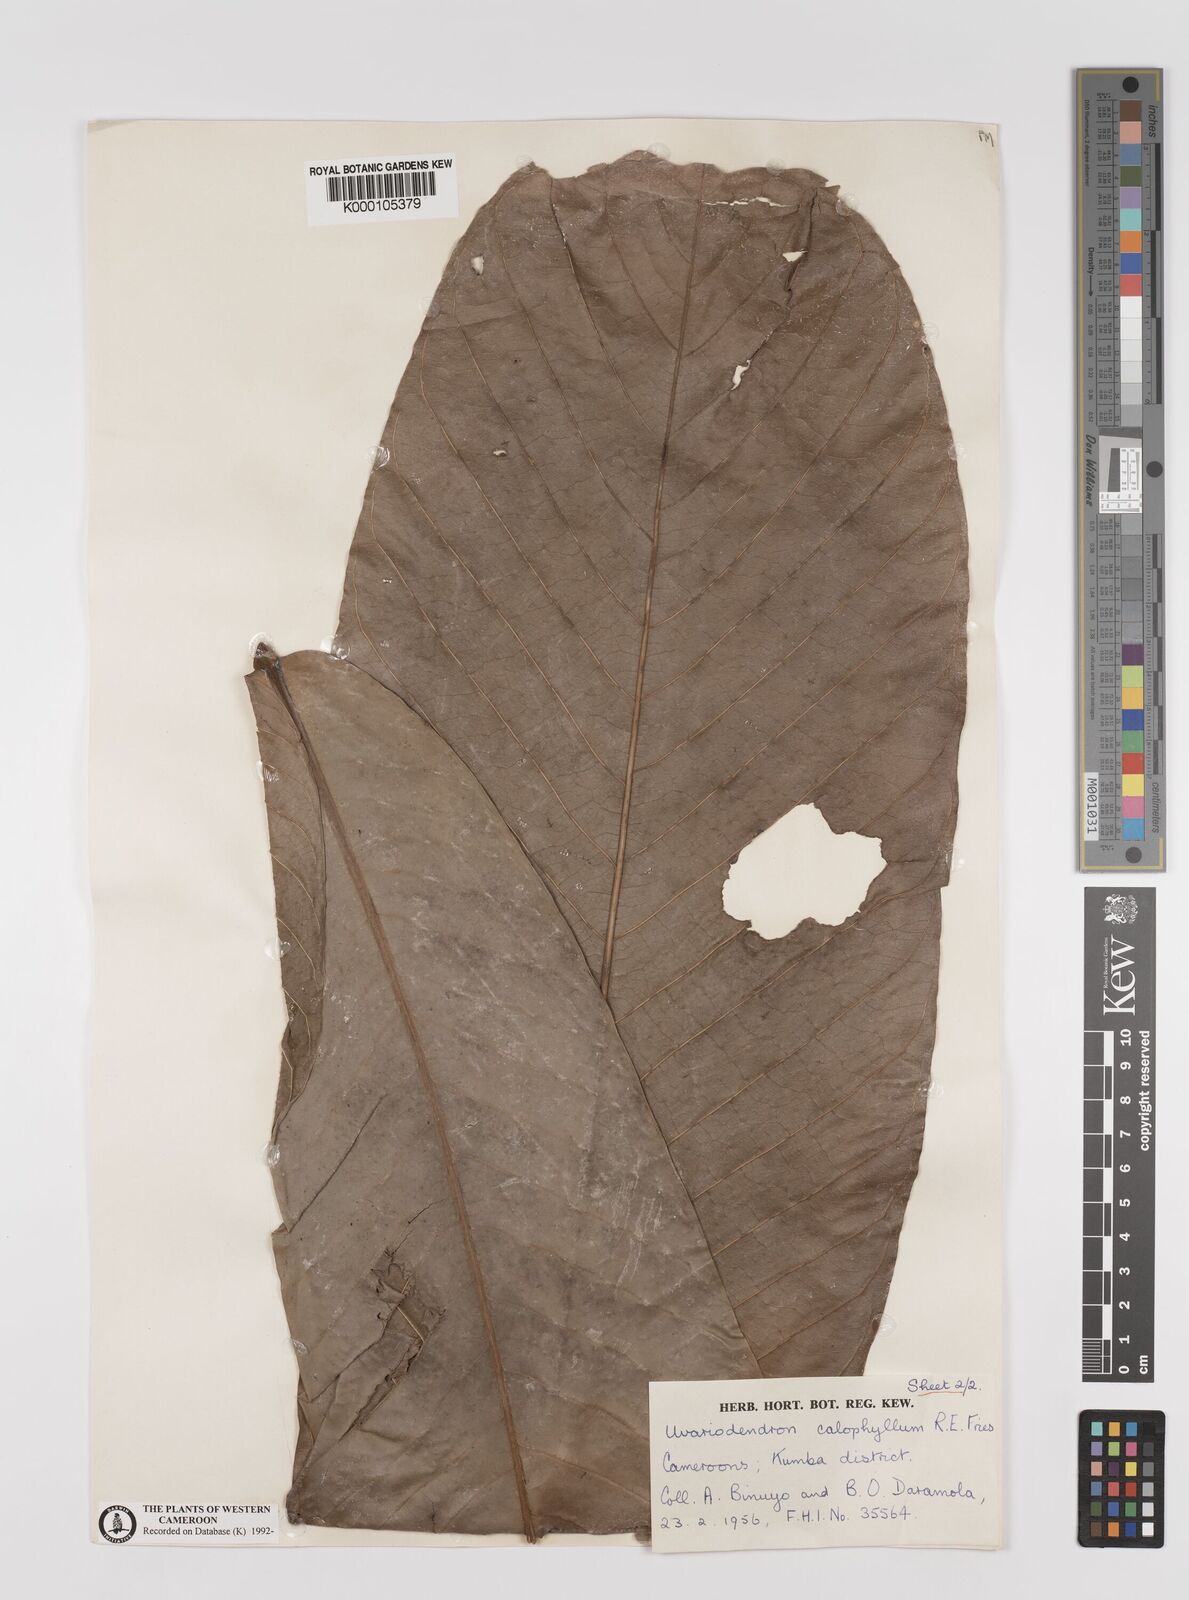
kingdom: Plantae
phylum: Tracheophyta
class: Magnoliopsida
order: Magnoliales
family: Annonaceae
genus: Uvariodendron
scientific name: Uvariodendron calophyllum
